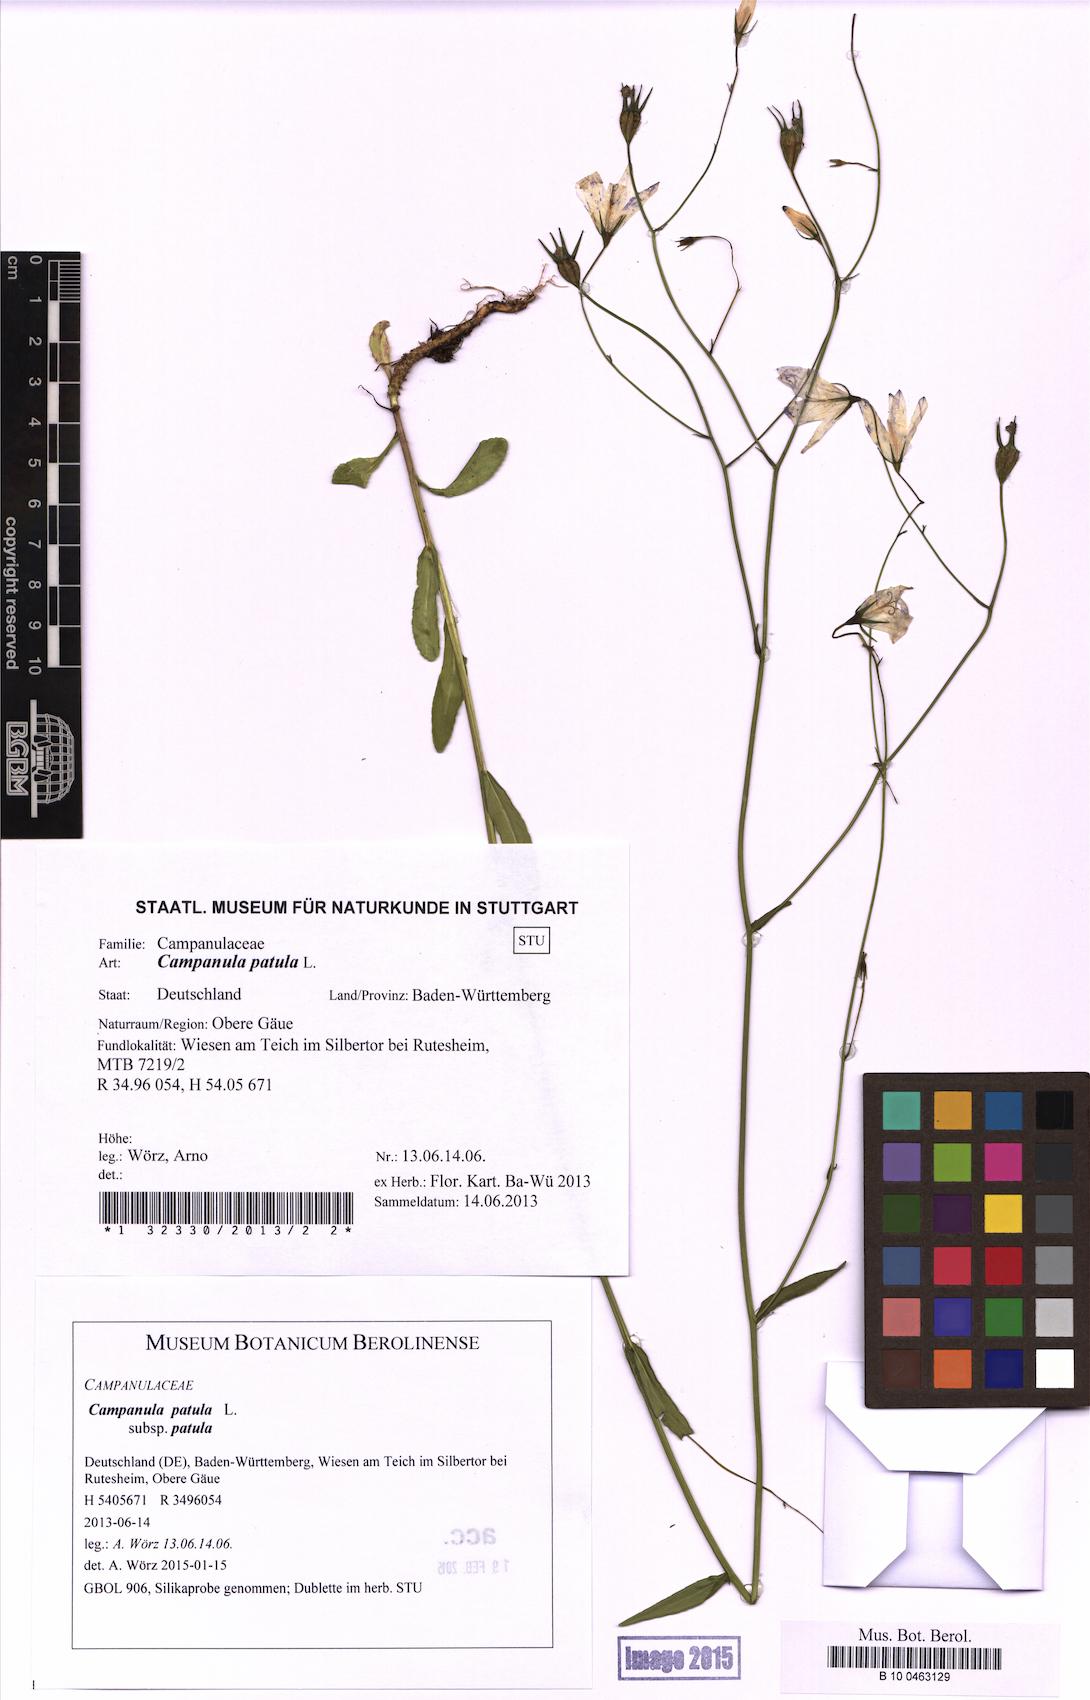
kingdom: Plantae
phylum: Tracheophyta
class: Magnoliopsida
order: Asterales
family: Campanulaceae
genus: Campanula
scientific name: Campanula patula
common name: Spreading bellflower
